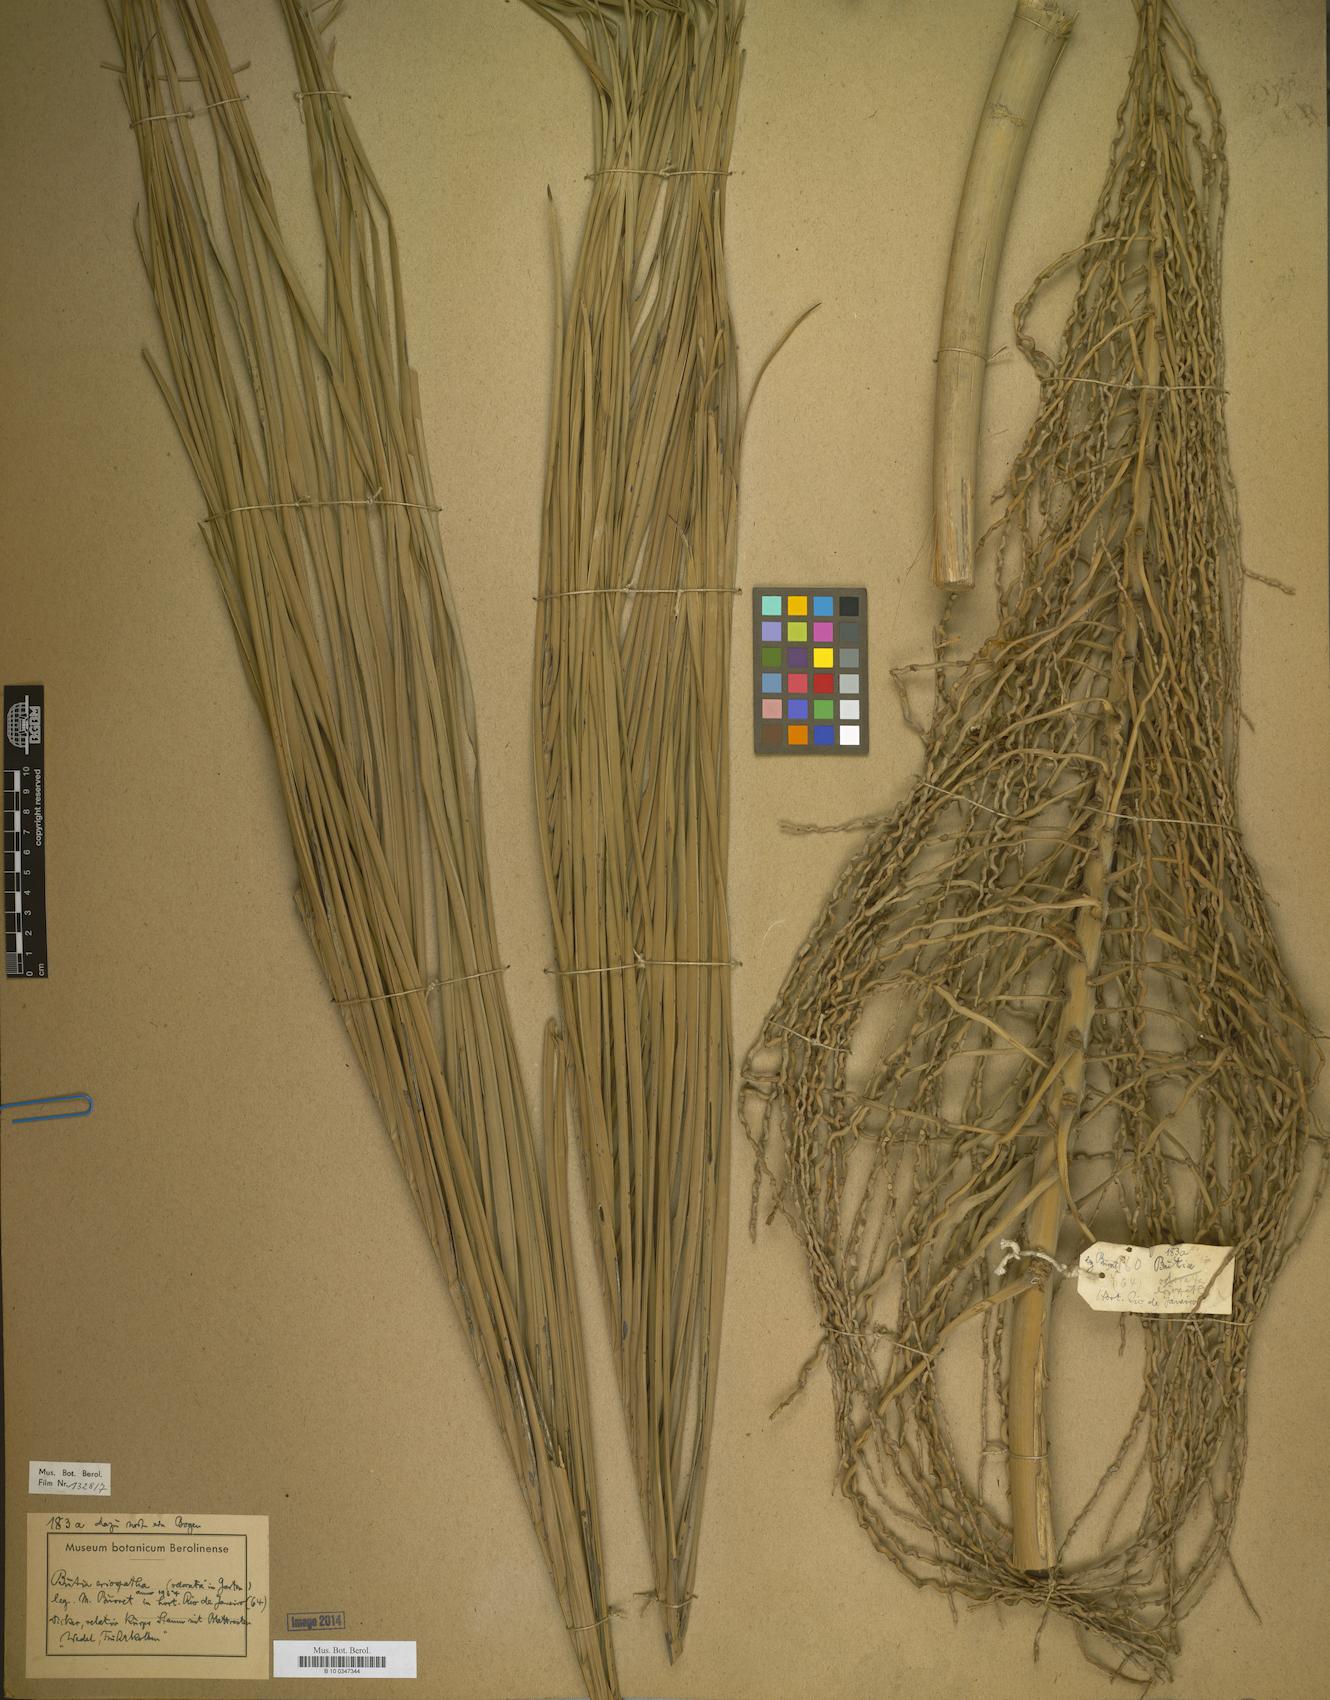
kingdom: Plantae
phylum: Tracheophyta
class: Liliopsida
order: Arecales
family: Arecaceae
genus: Butia
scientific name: Butia
